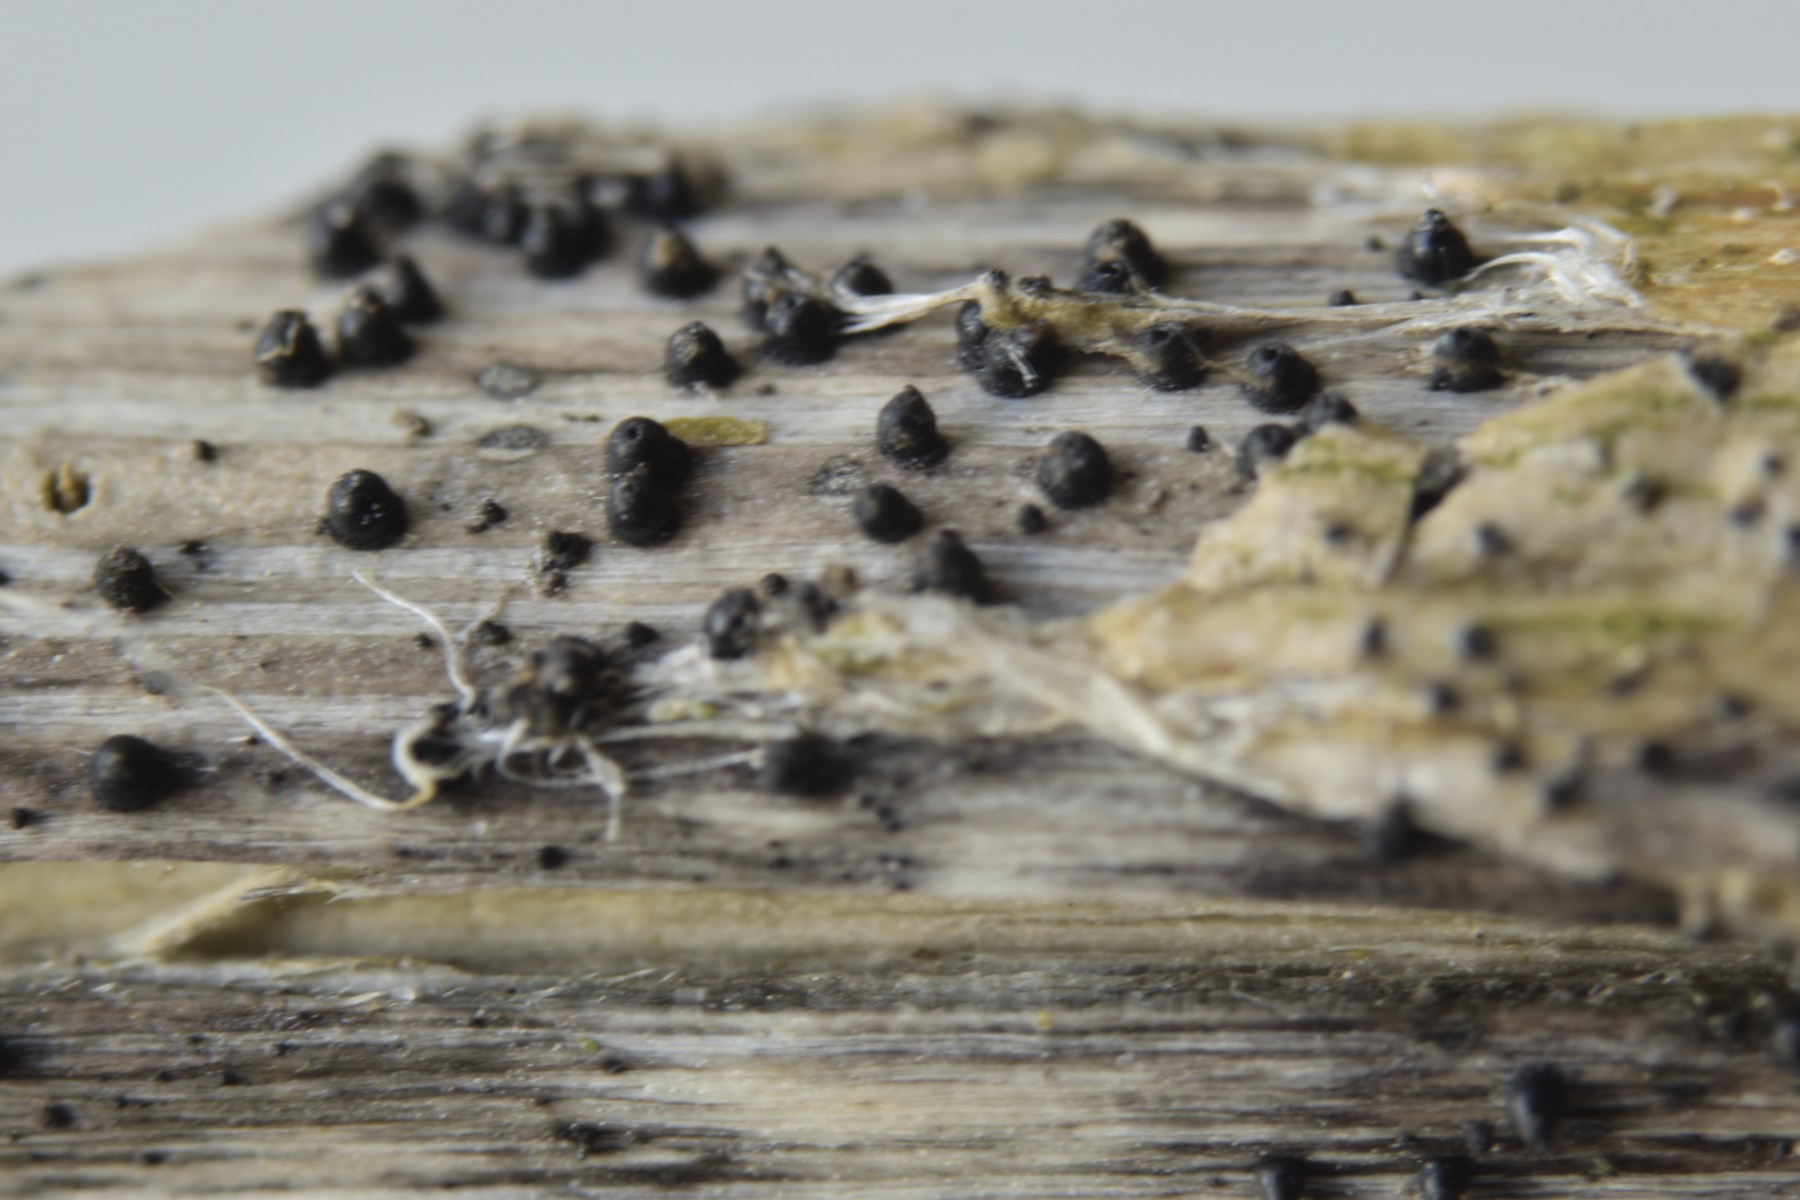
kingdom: Fungi
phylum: Ascomycota
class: Dothideomycetes
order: Pleosporales
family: Leptosphaeriaceae
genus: Leptosphaeria
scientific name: Leptosphaeria acuta
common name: spids kulkegle
